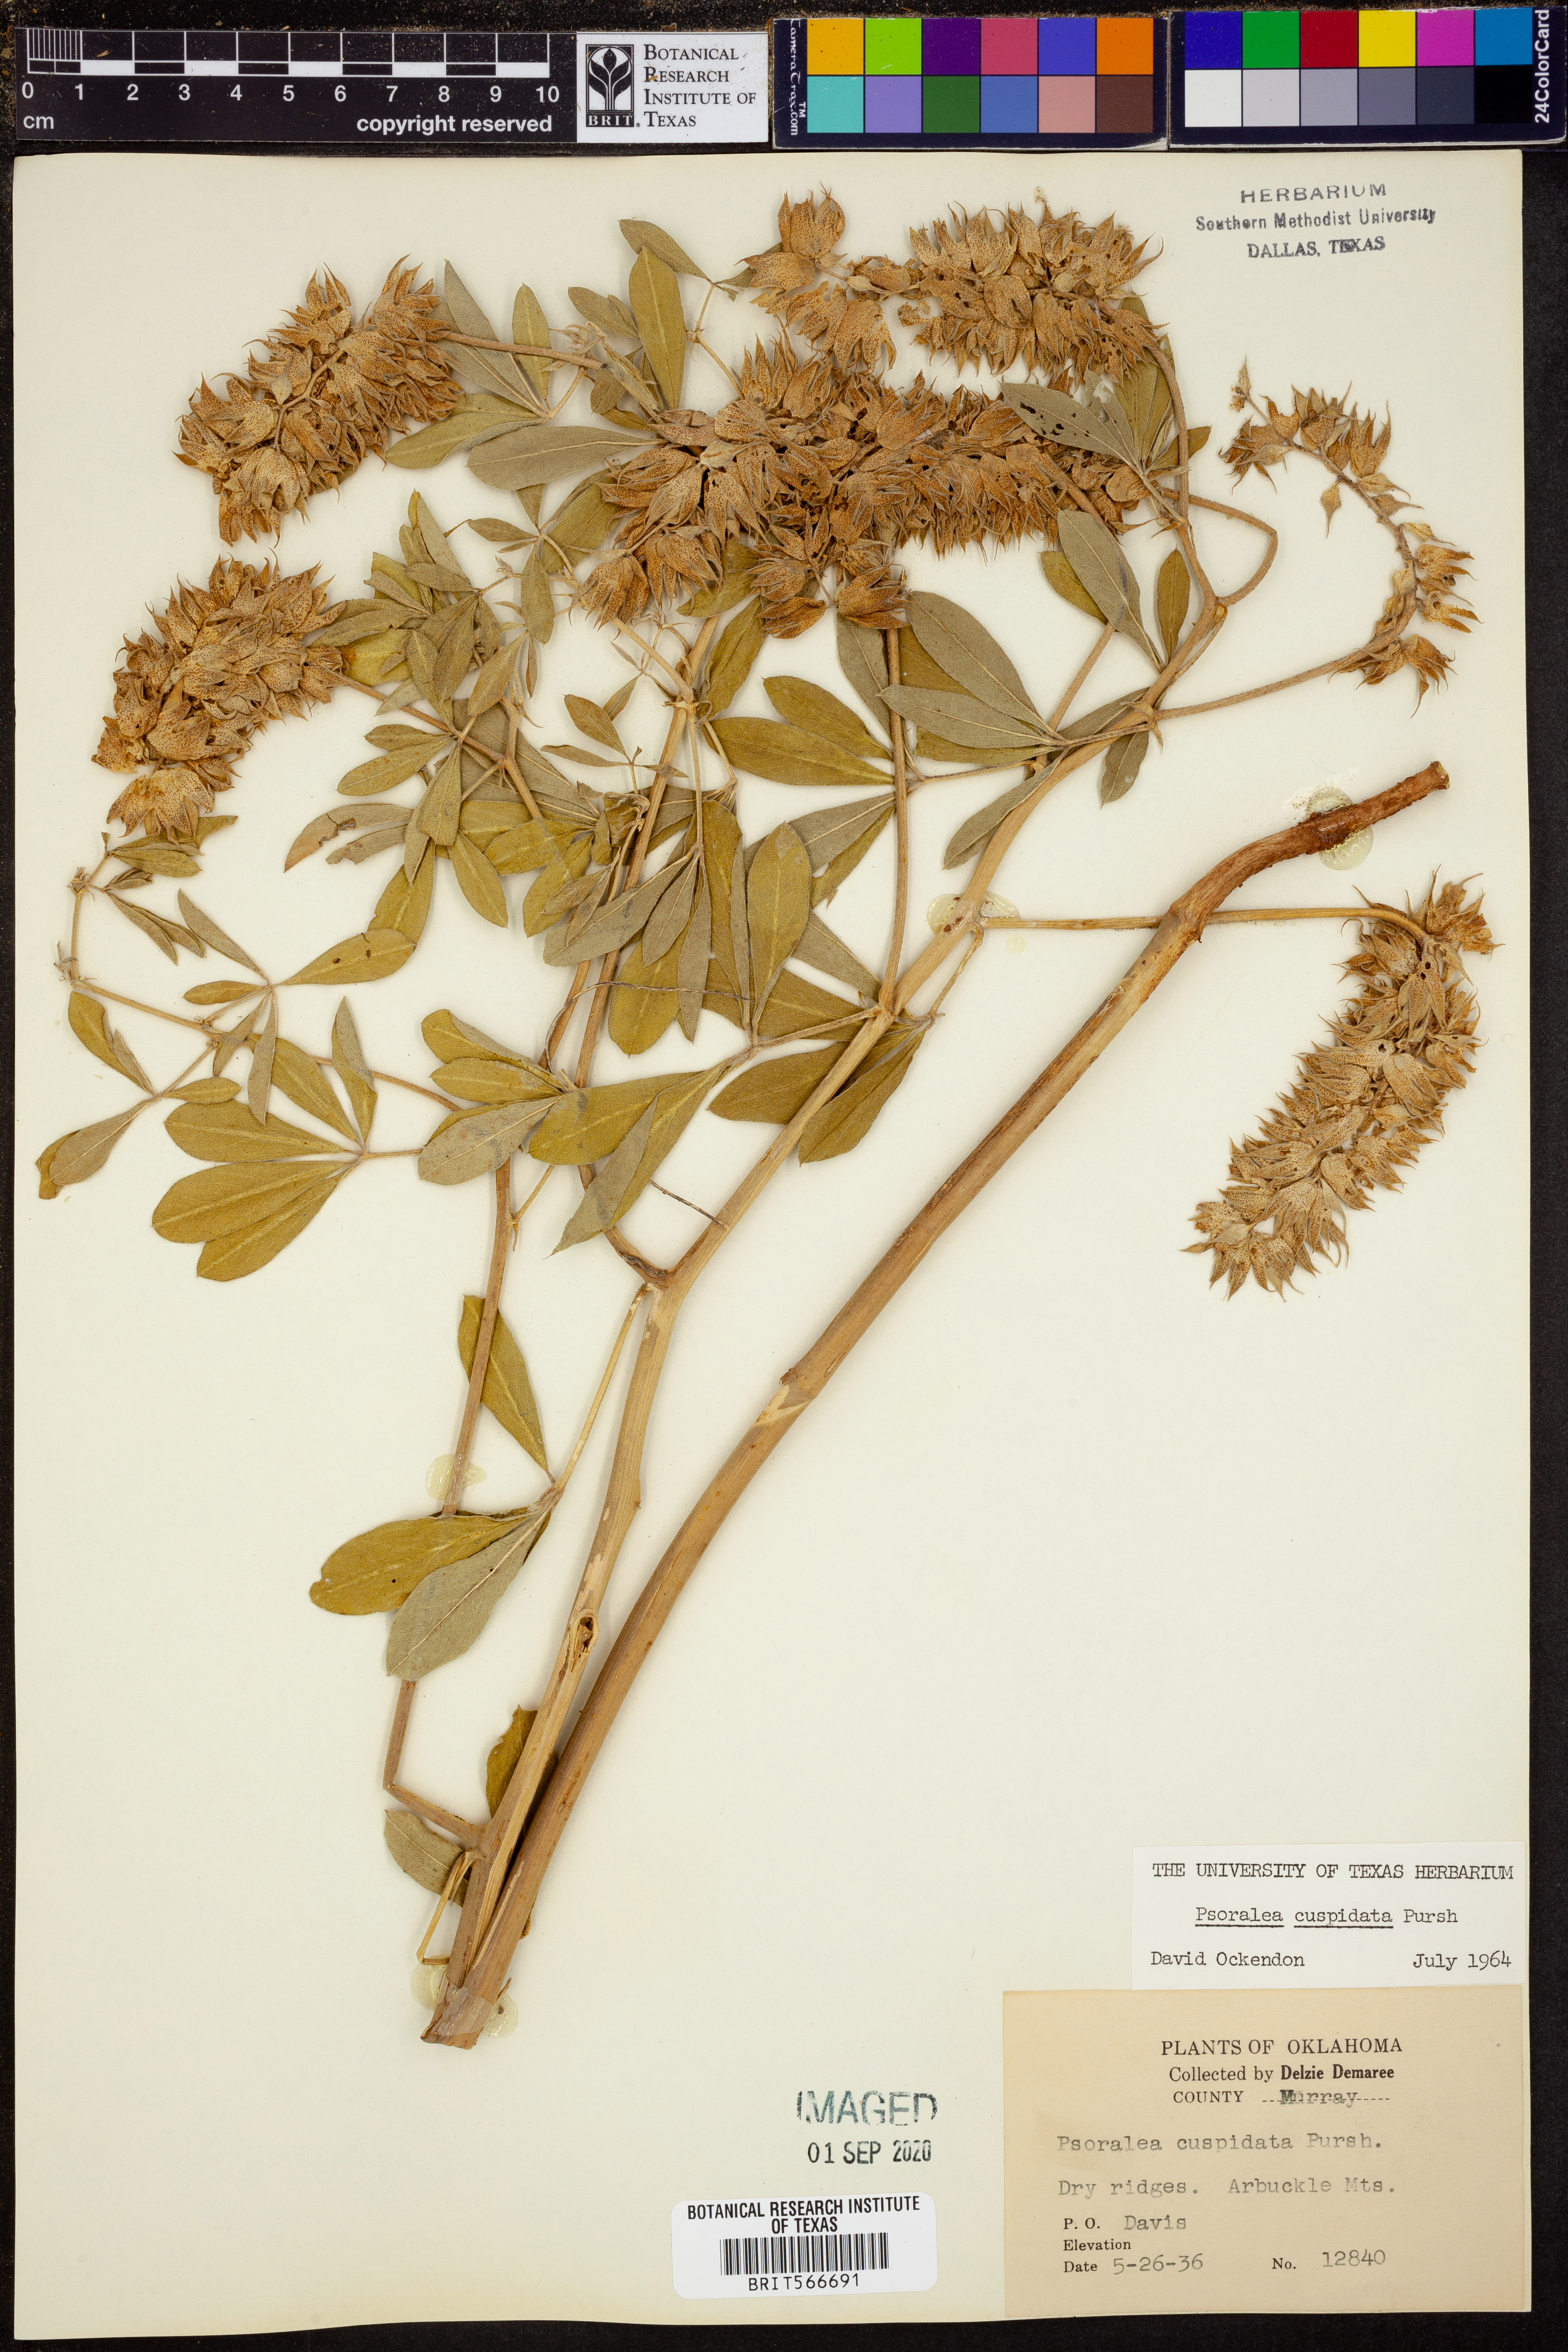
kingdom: Plantae
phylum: Tracheophyta
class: Magnoliopsida
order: Fabales
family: Fabaceae
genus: Pediomelum
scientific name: Pediomelum cuspidatum
